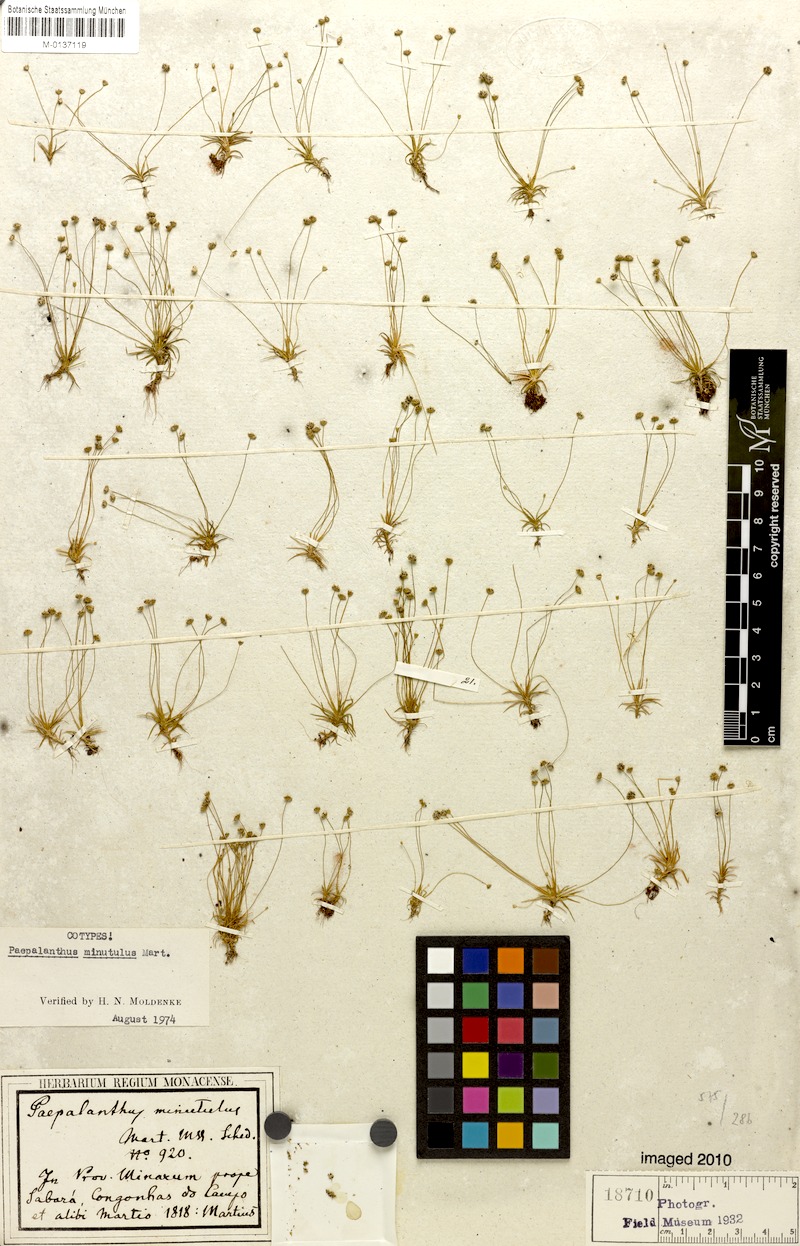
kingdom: Plantae
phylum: Tracheophyta
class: Liliopsida
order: Poales
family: Eriocaulaceae
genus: Paepalanthus
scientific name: Paepalanthus minutulus
